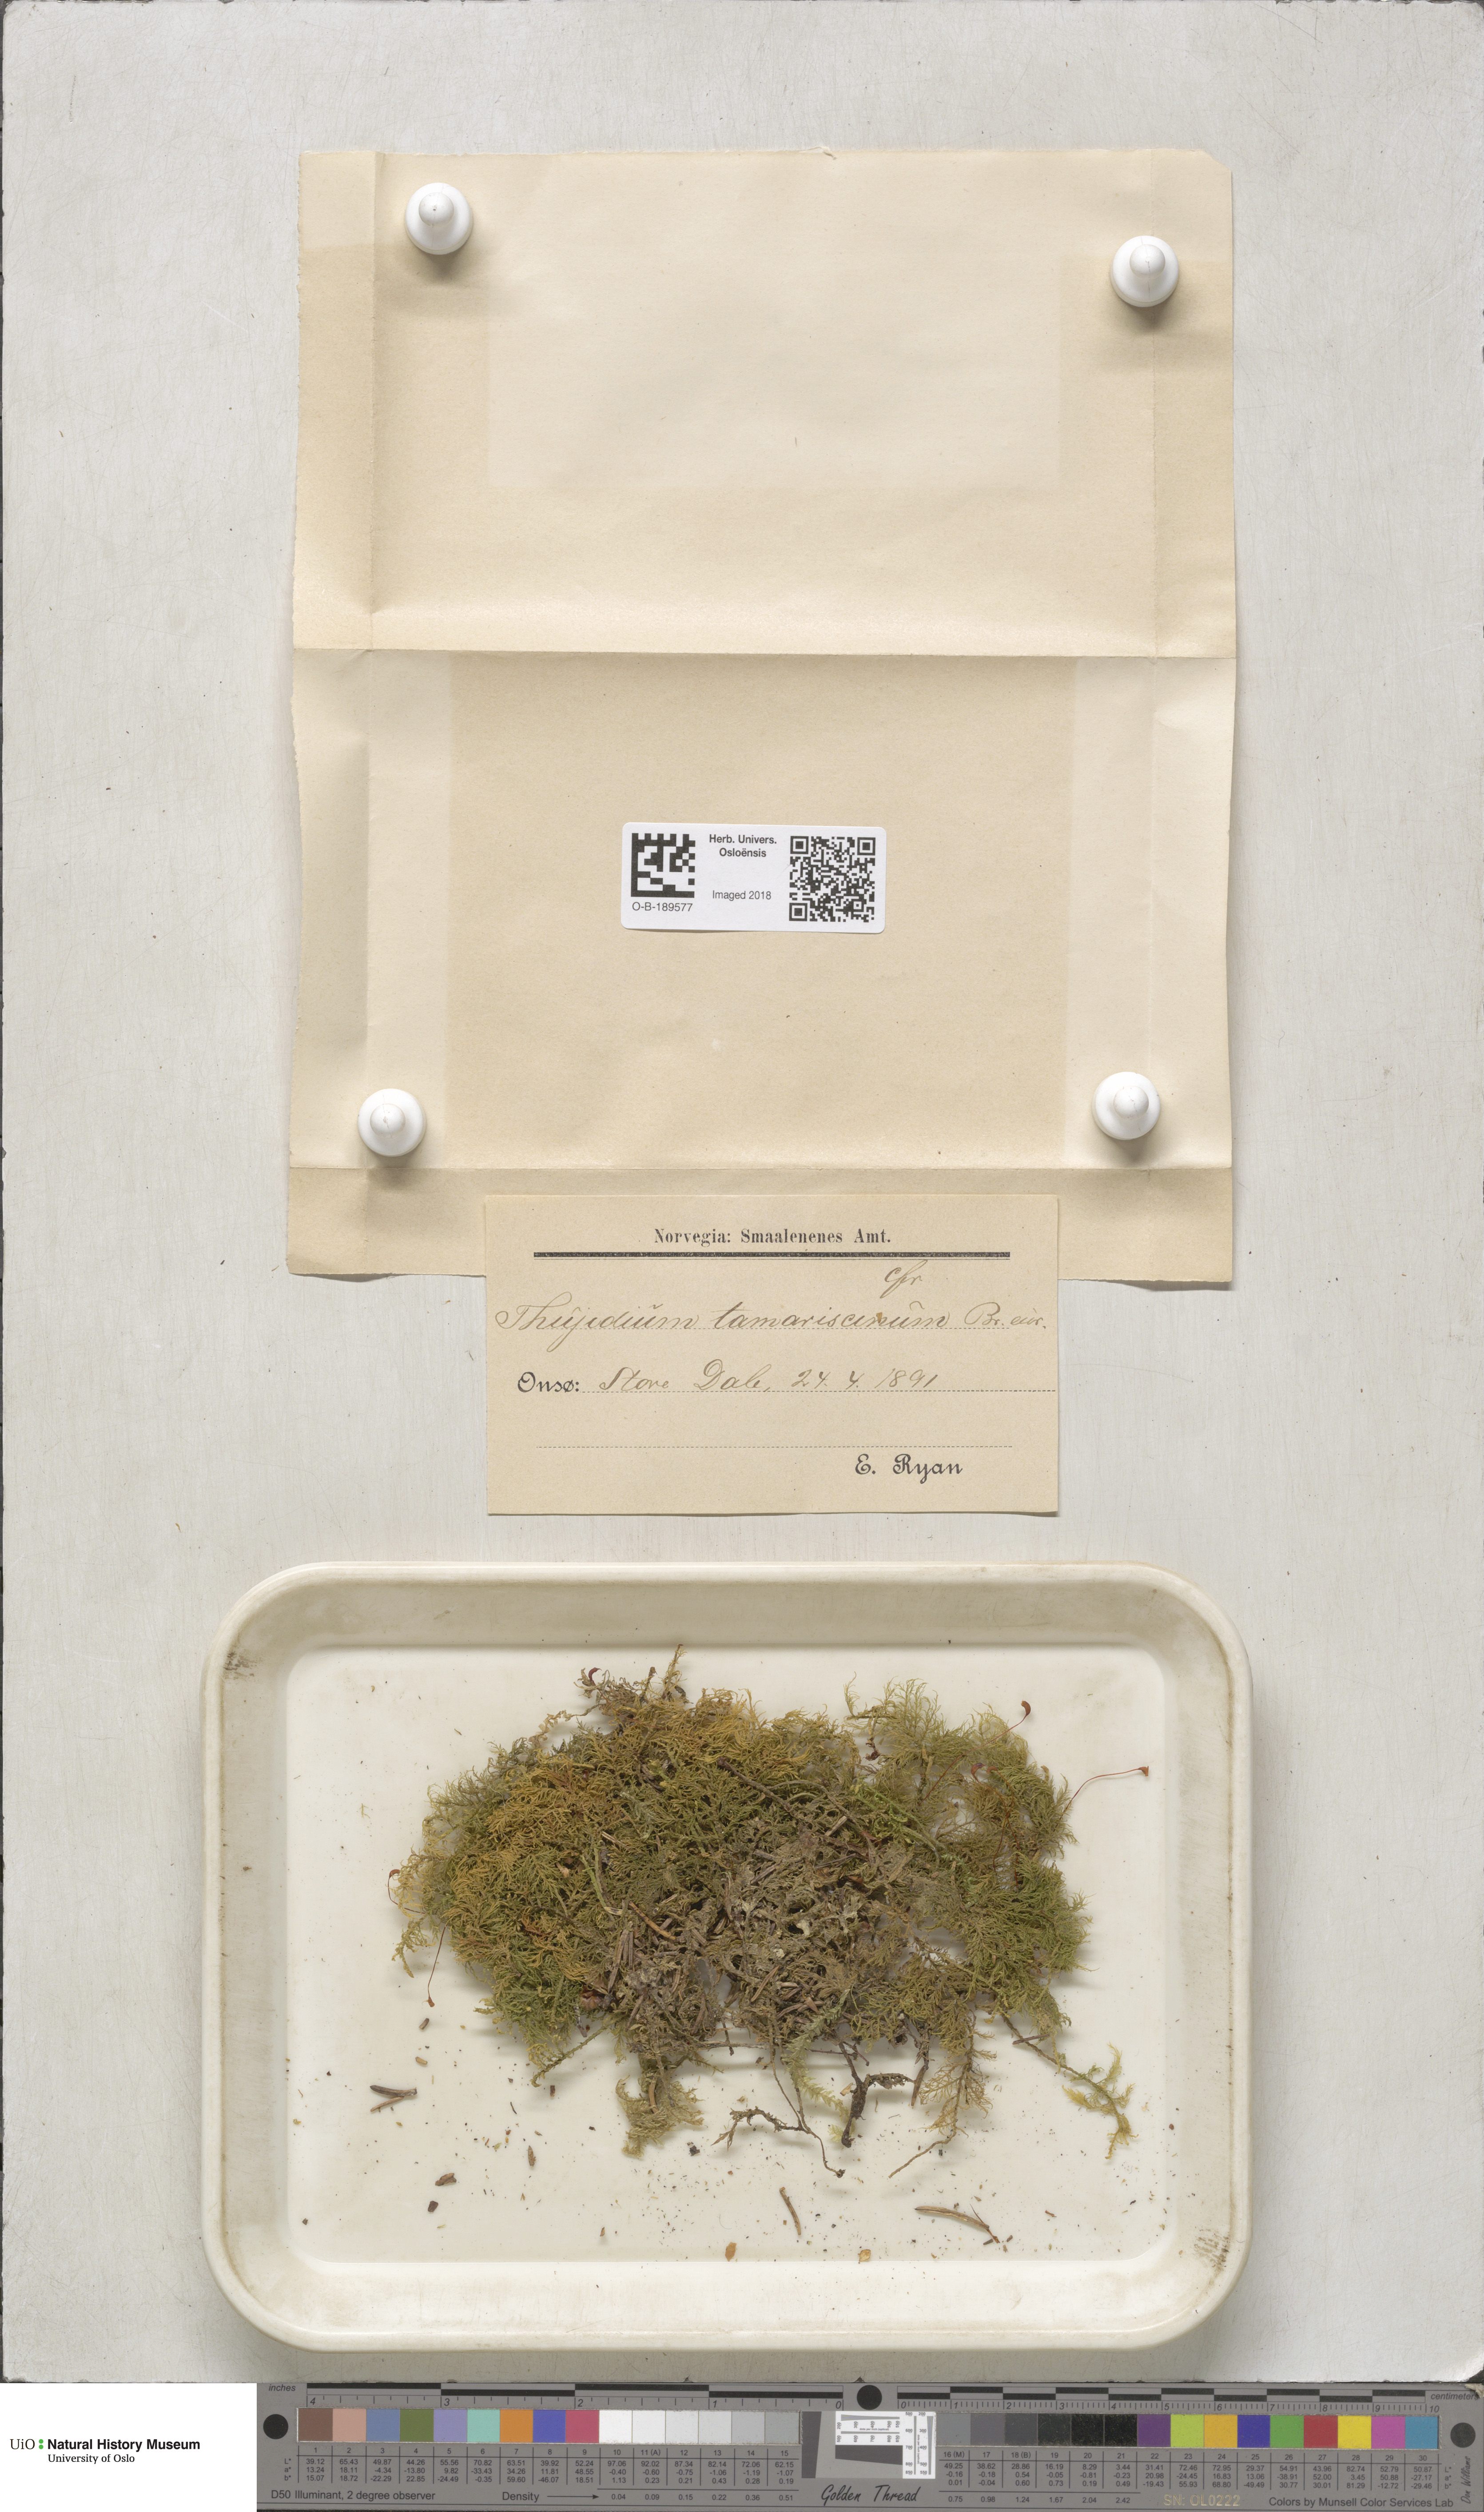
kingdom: Plantae
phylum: Bryophyta
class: Bryopsida
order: Hypnales
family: Thuidiaceae
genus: Thuidium
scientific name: Thuidium tamariscinum
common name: Common tamarisk-moss
